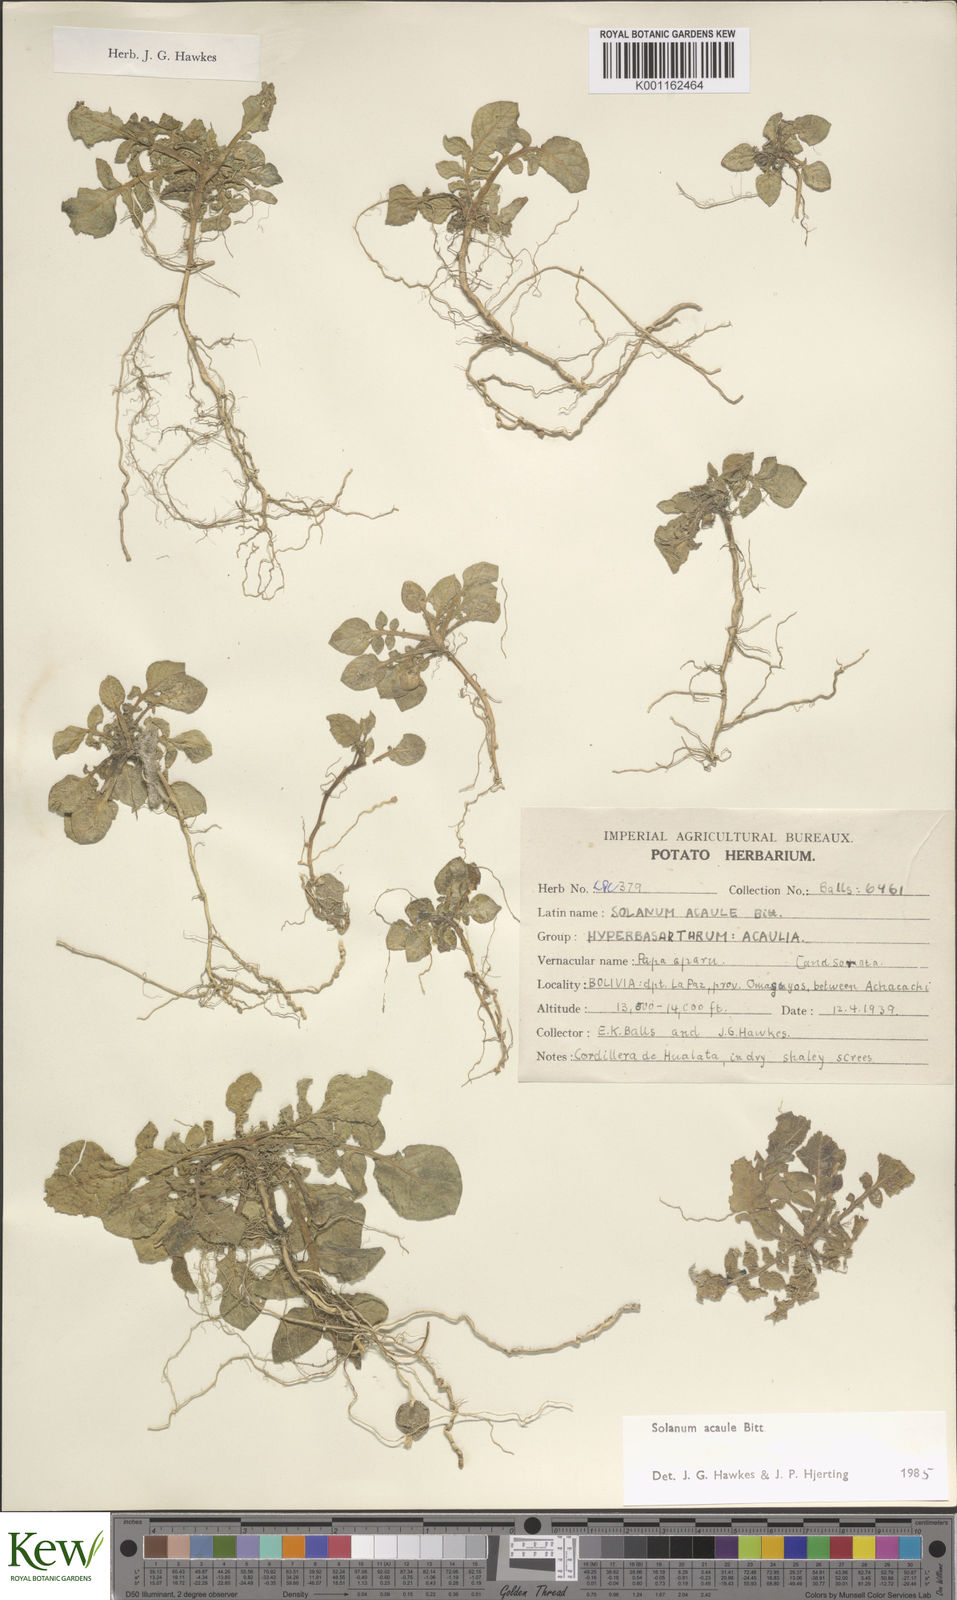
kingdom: Plantae
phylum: Tracheophyta
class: Magnoliopsida
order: Solanales
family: Solanaceae
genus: Solanum
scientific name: Solanum acaule
